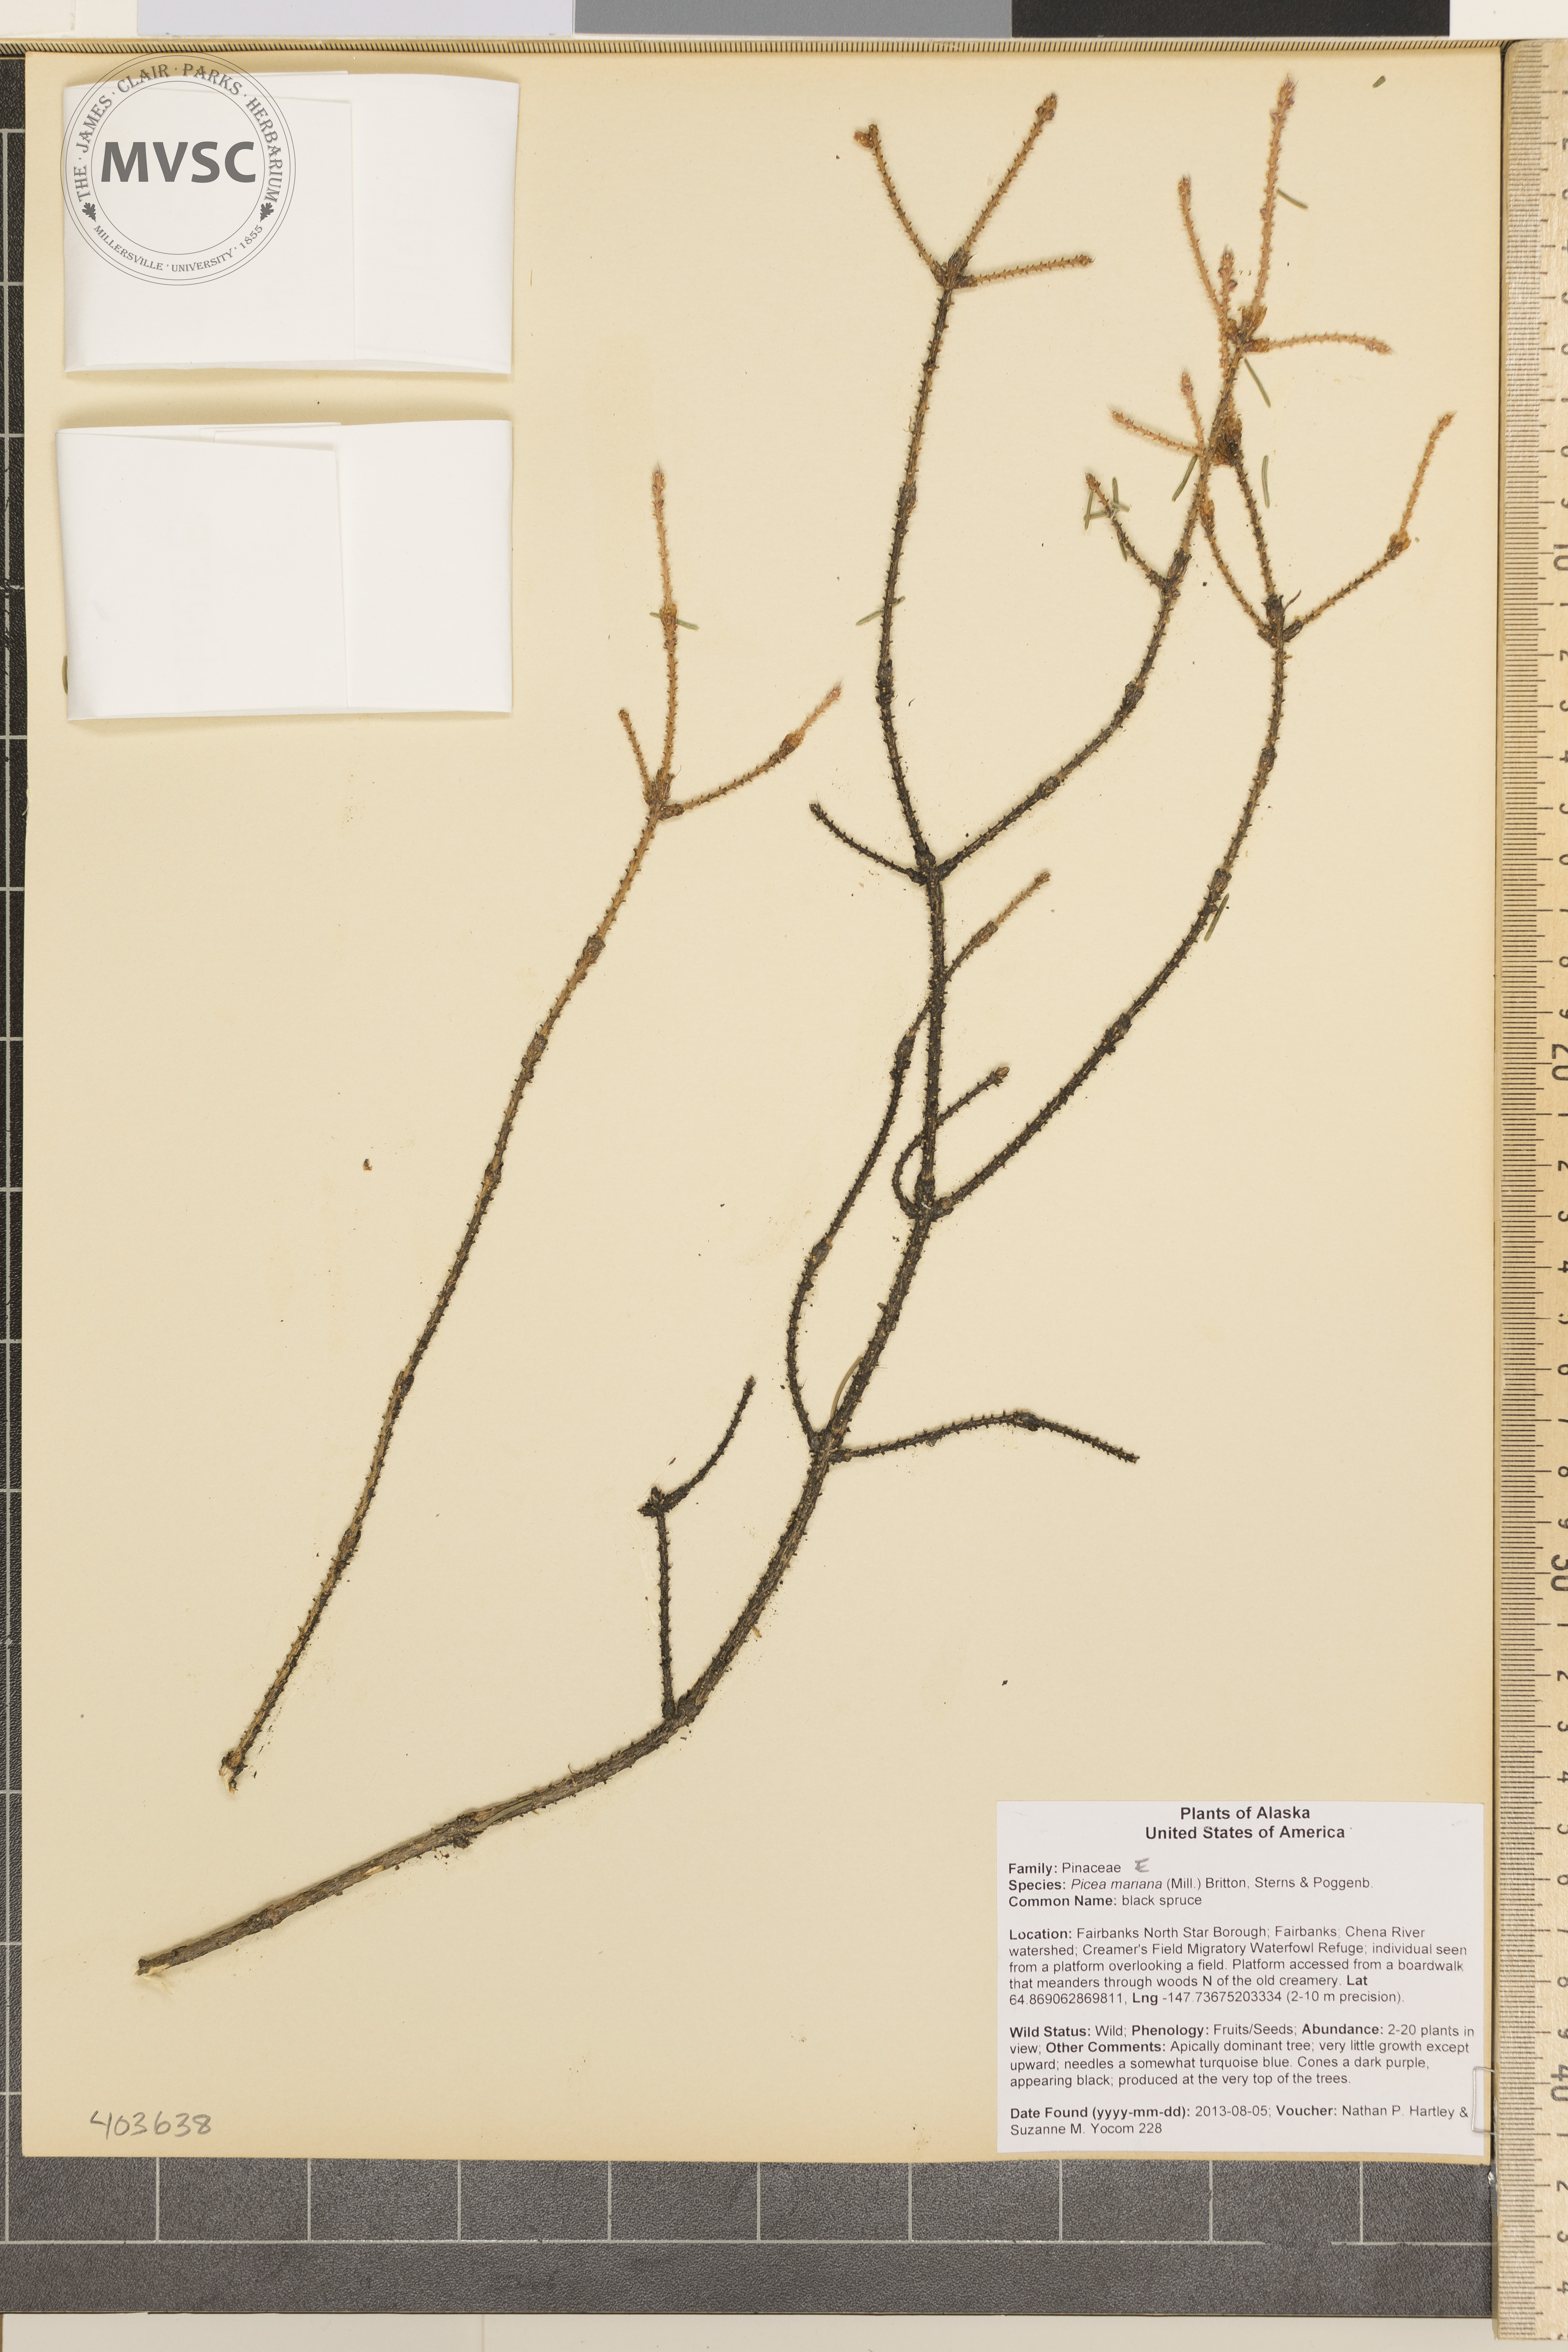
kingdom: Plantae
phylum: Tracheophyta
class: Pinopsida
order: Pinales
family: Pinaceae
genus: Picea
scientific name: Picea mariana
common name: Black spruce
